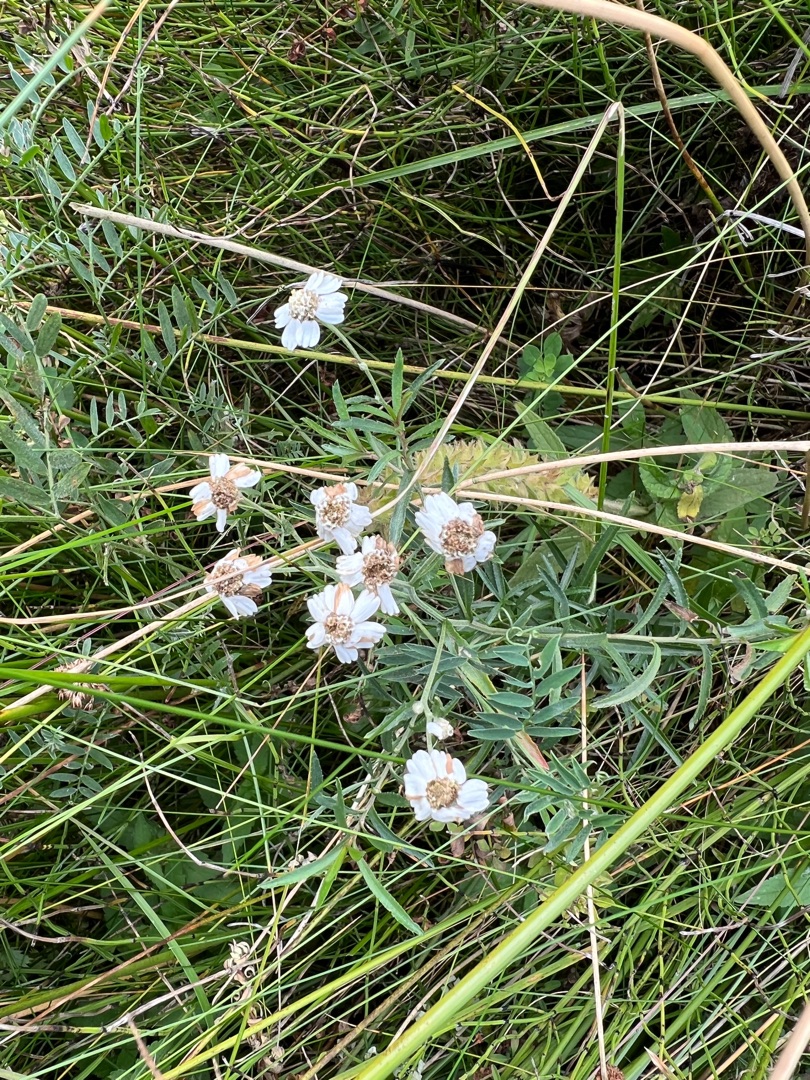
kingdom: Plantae
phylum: Tracheophyta
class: Magnoliopsida
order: Asterales
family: Asteraceae
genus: Achillea
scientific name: Achillea ptarmica
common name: Nyse-røllike
